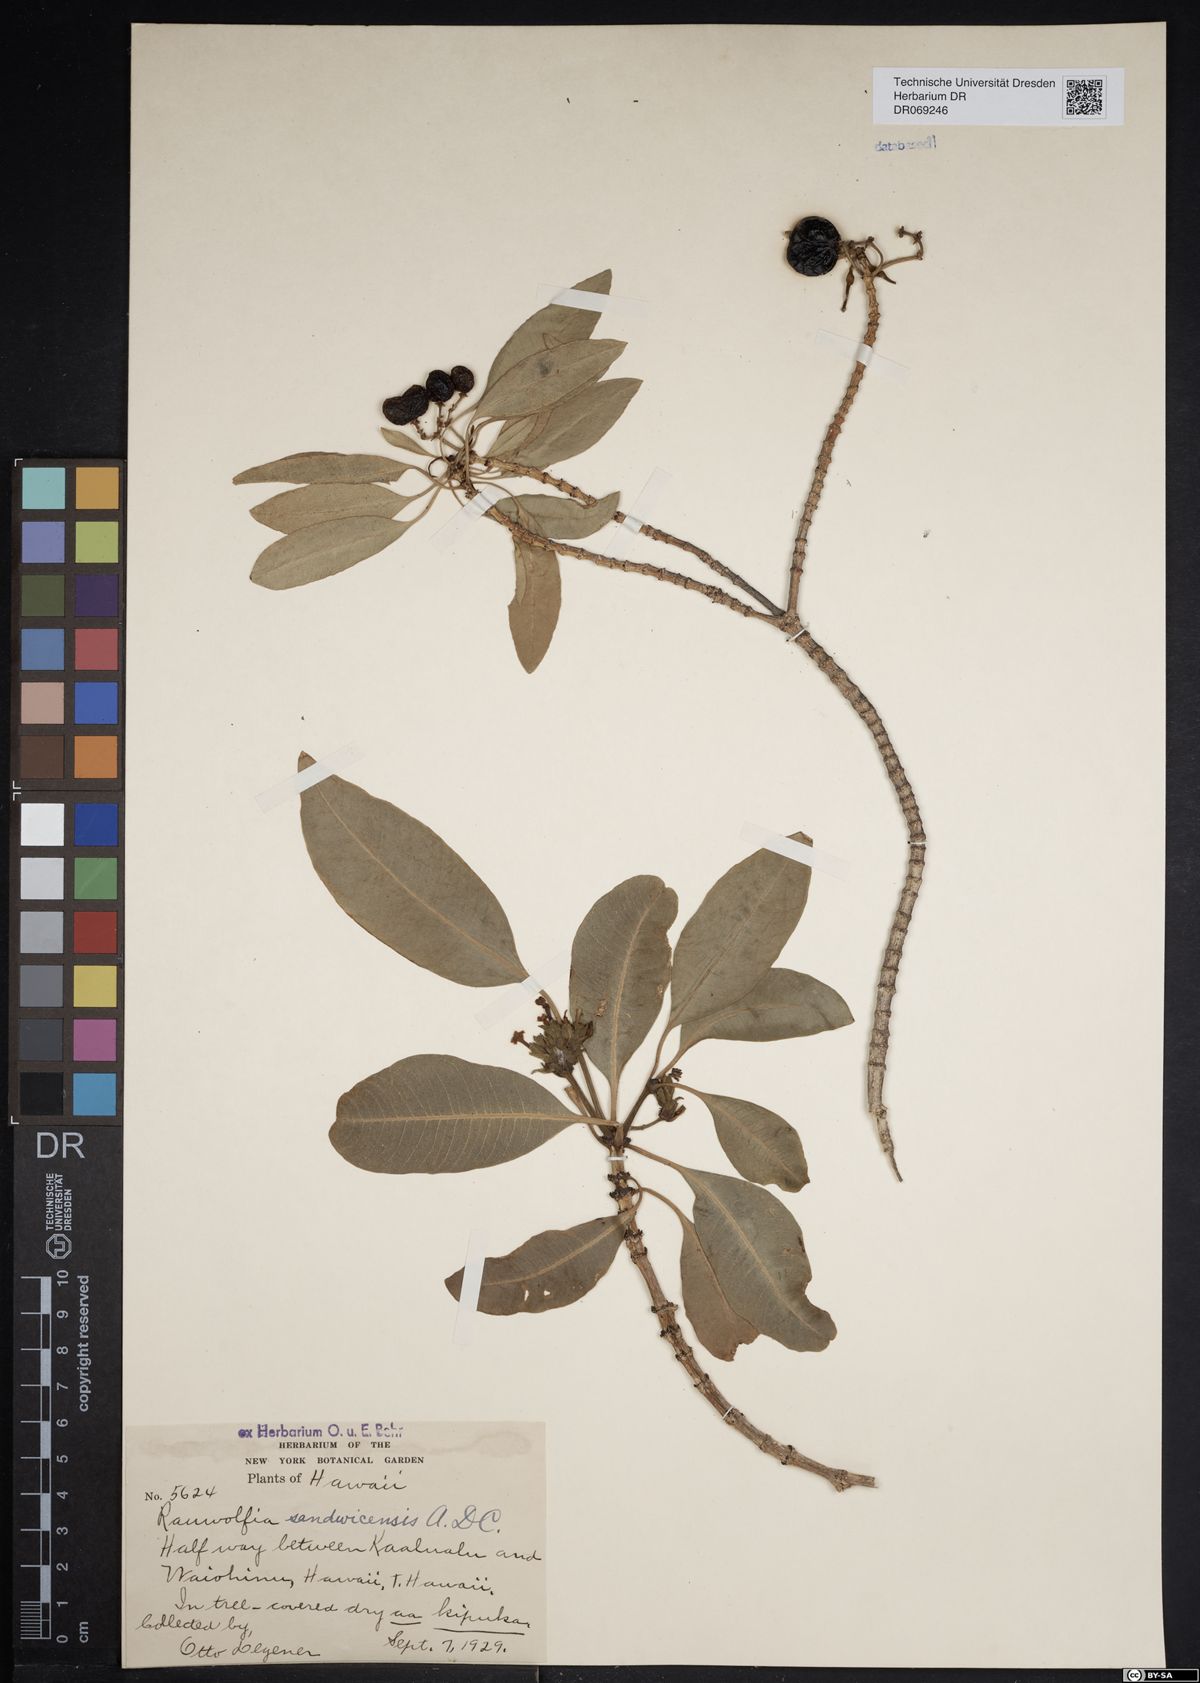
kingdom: Plantae
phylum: Tracheophyta
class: Magnoliopsida
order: Gentianales
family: Apocynaceae
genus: Rauvolfia
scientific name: Rauvolfia sandwicensis
